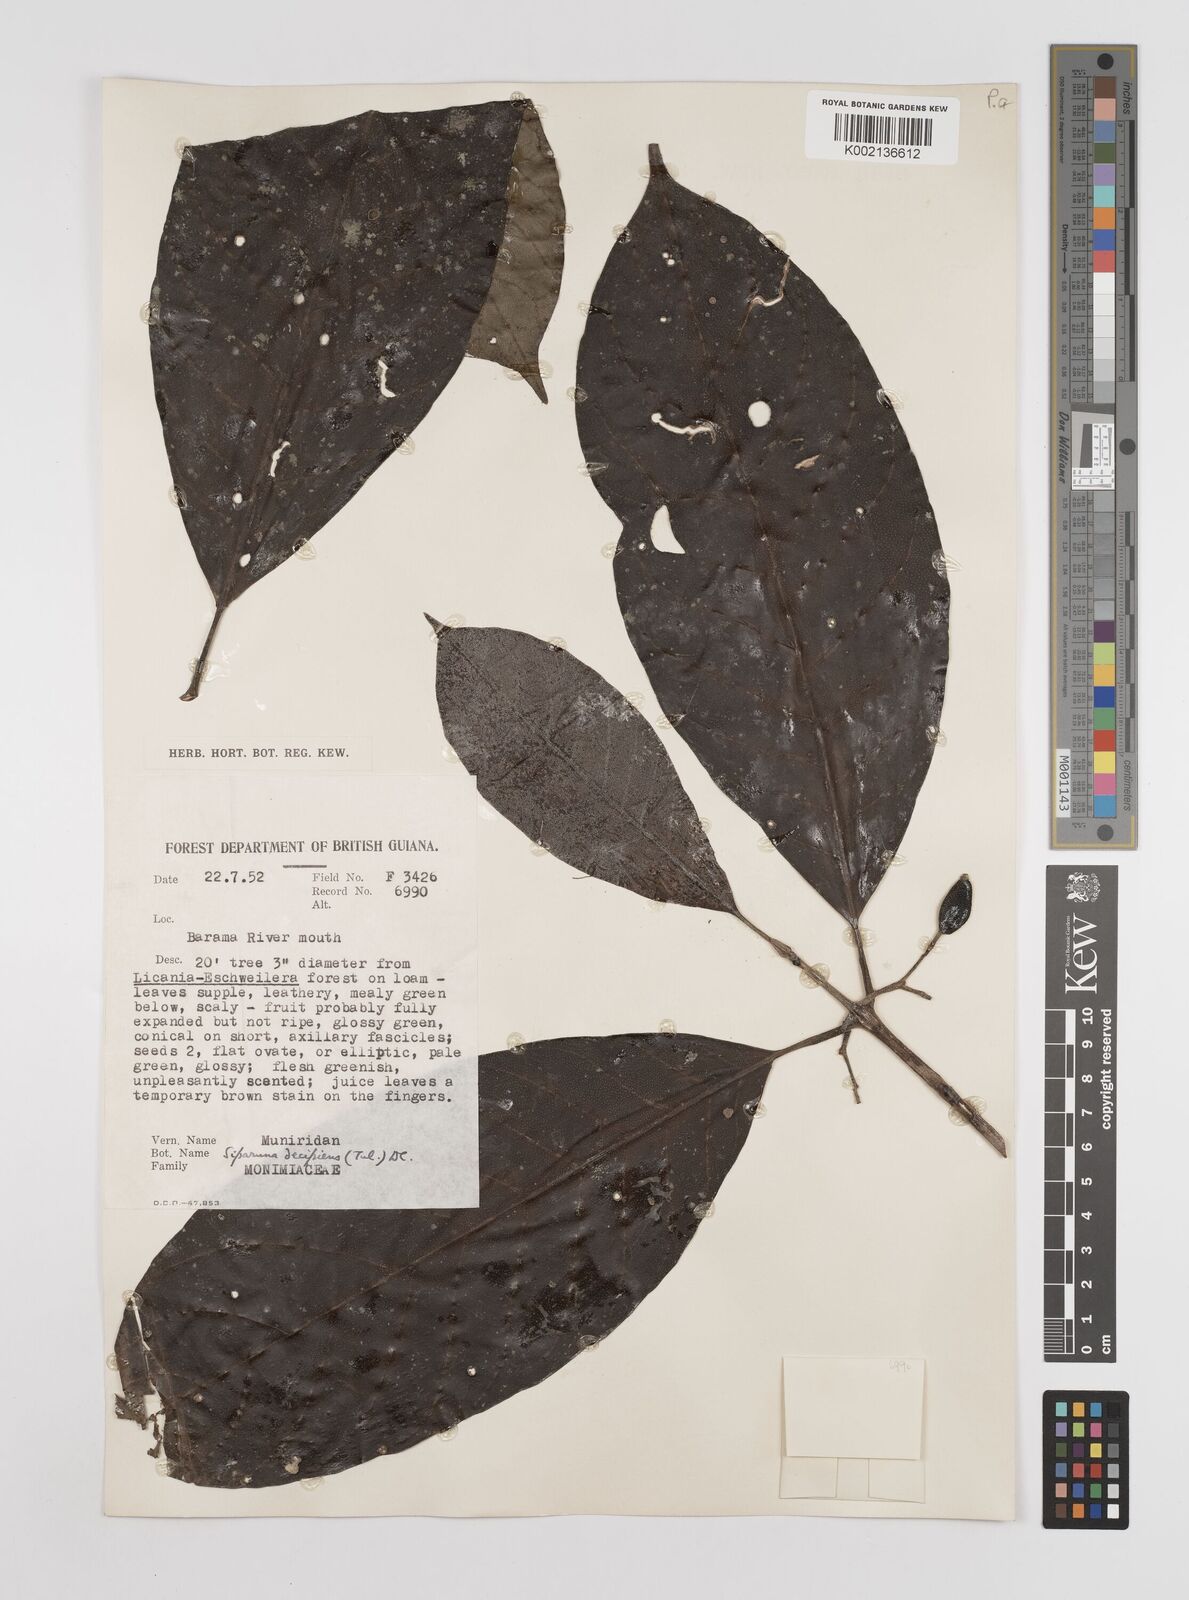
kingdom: Plantae
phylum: Tracheophyta
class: Magnoliopsida
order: Laurales
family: Siparunaceae
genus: Siparuna
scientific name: Siparuna decipiens
